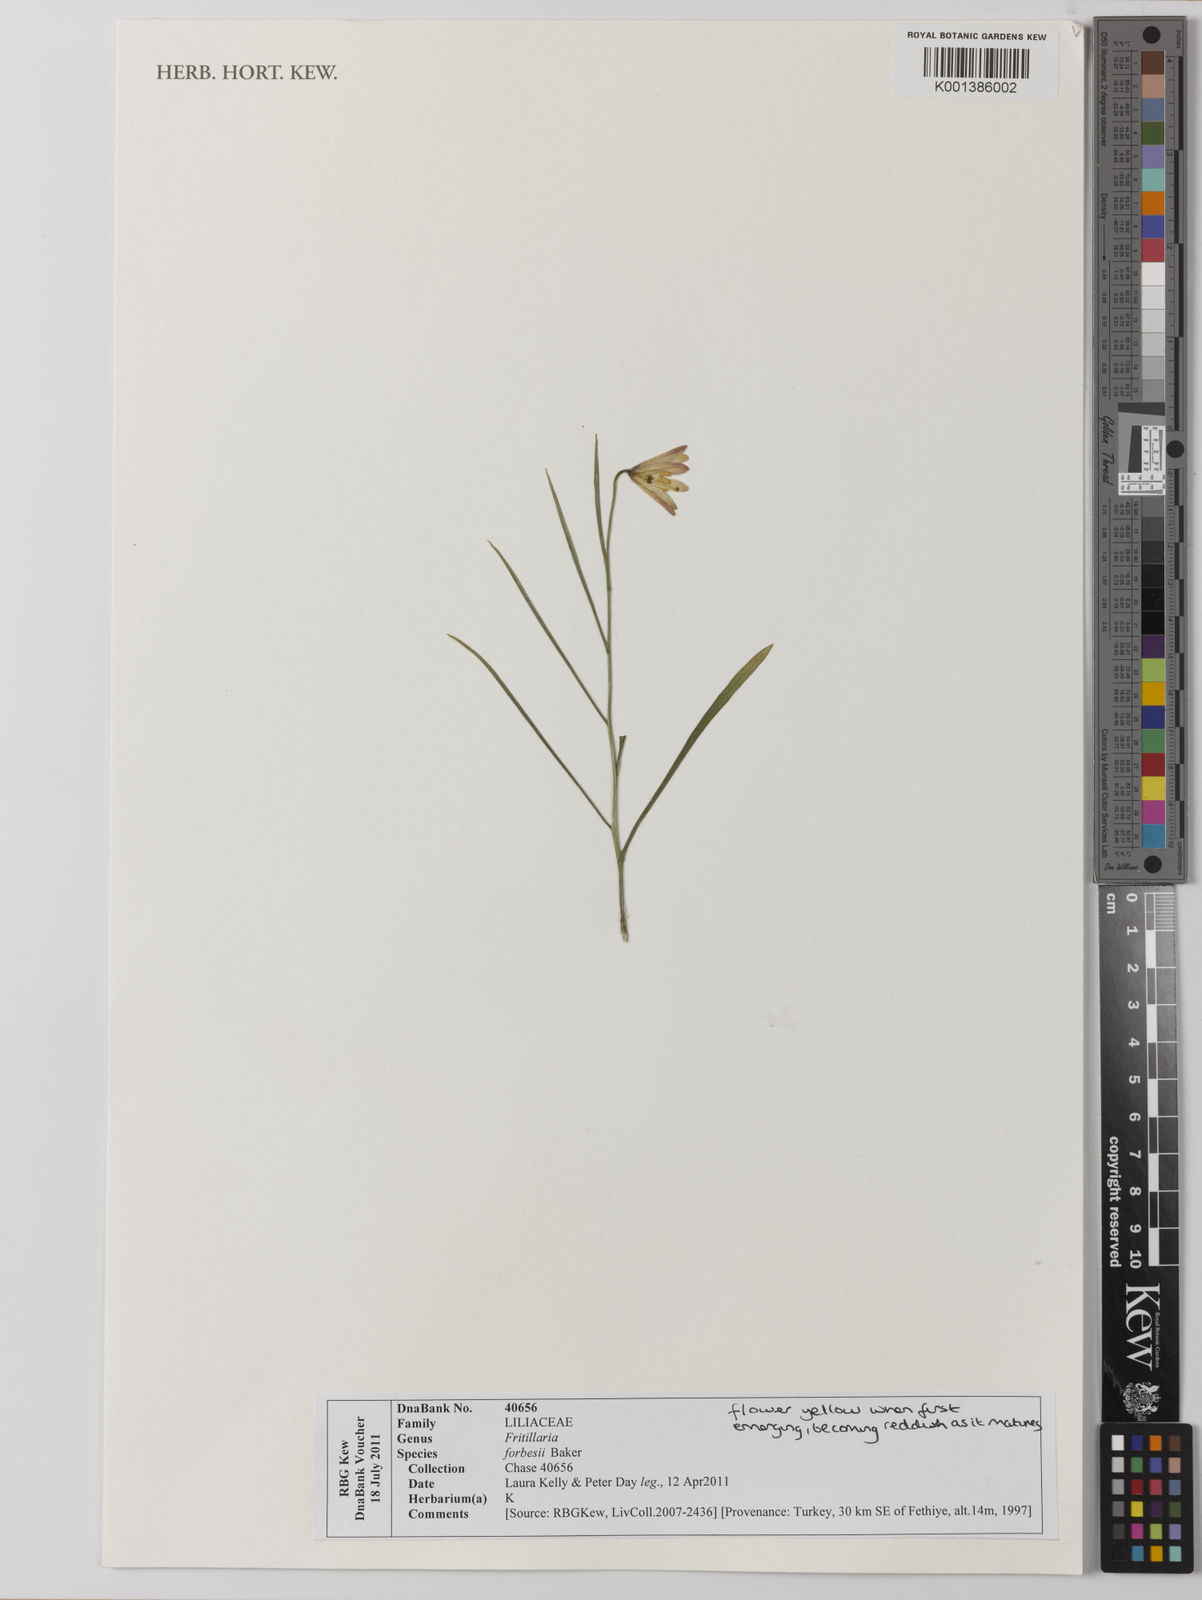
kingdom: Plantae
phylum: Tracheophyta
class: Liliopsida
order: Liliales
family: Liliaceae
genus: Fritillaria
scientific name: Fritillaria forbesii
